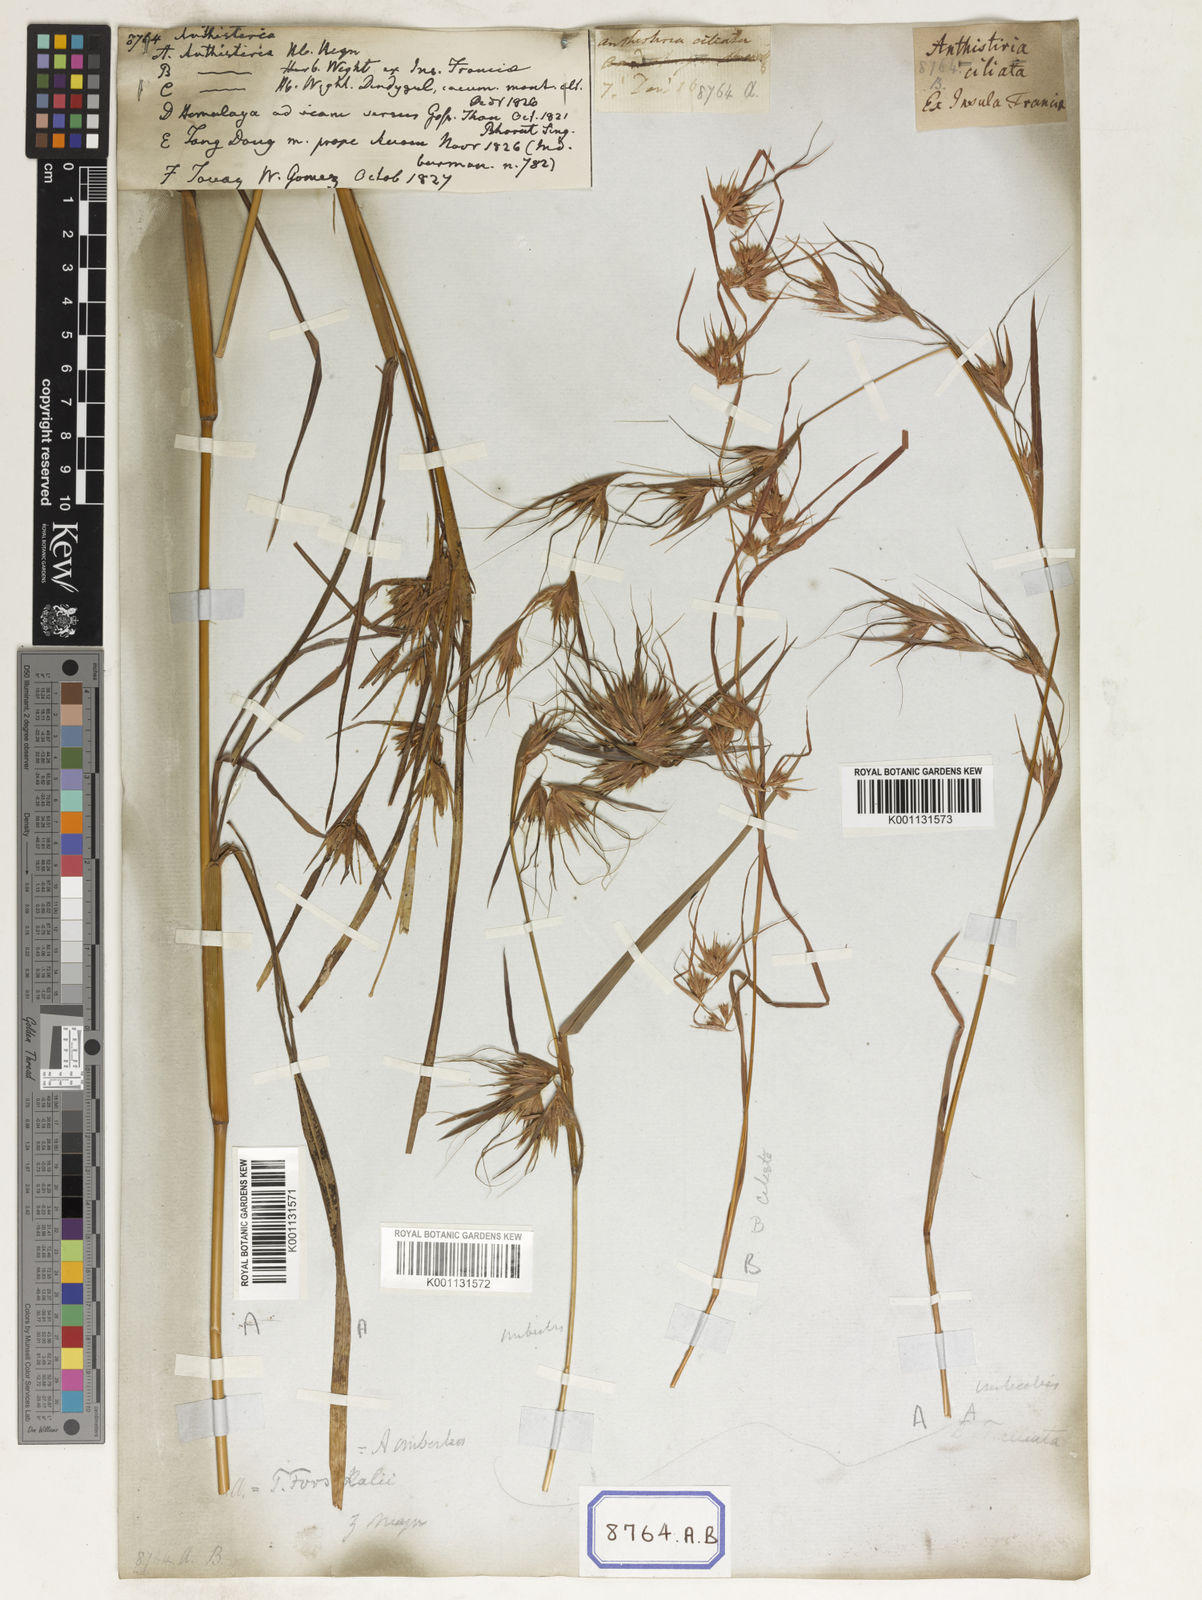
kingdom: Plantae
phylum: Tracheophyta
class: Liliopsida
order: Poales
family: Poaceae
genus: Themeda
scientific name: Themeda
